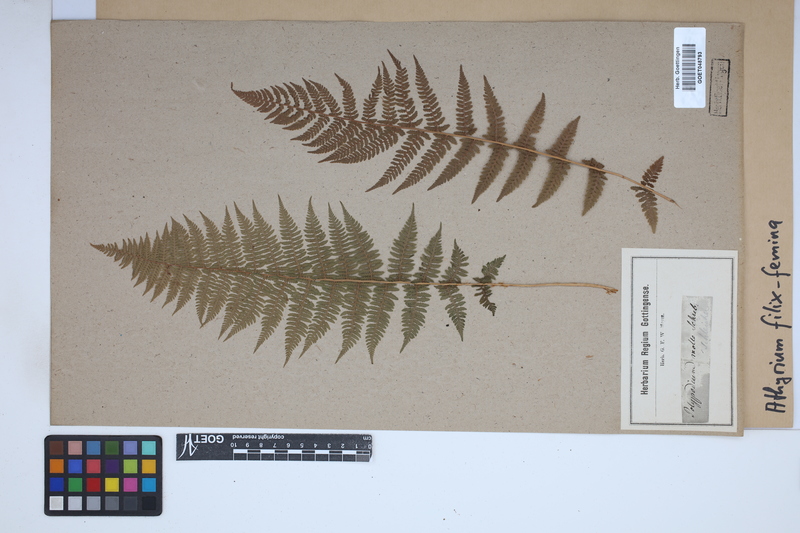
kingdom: Plantae
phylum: Tracheophyta
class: Polypodiopsida
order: Polypodiales
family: Athyriaceae
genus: Athyrium
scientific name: Athyrium filix-femina
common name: Lady fern
